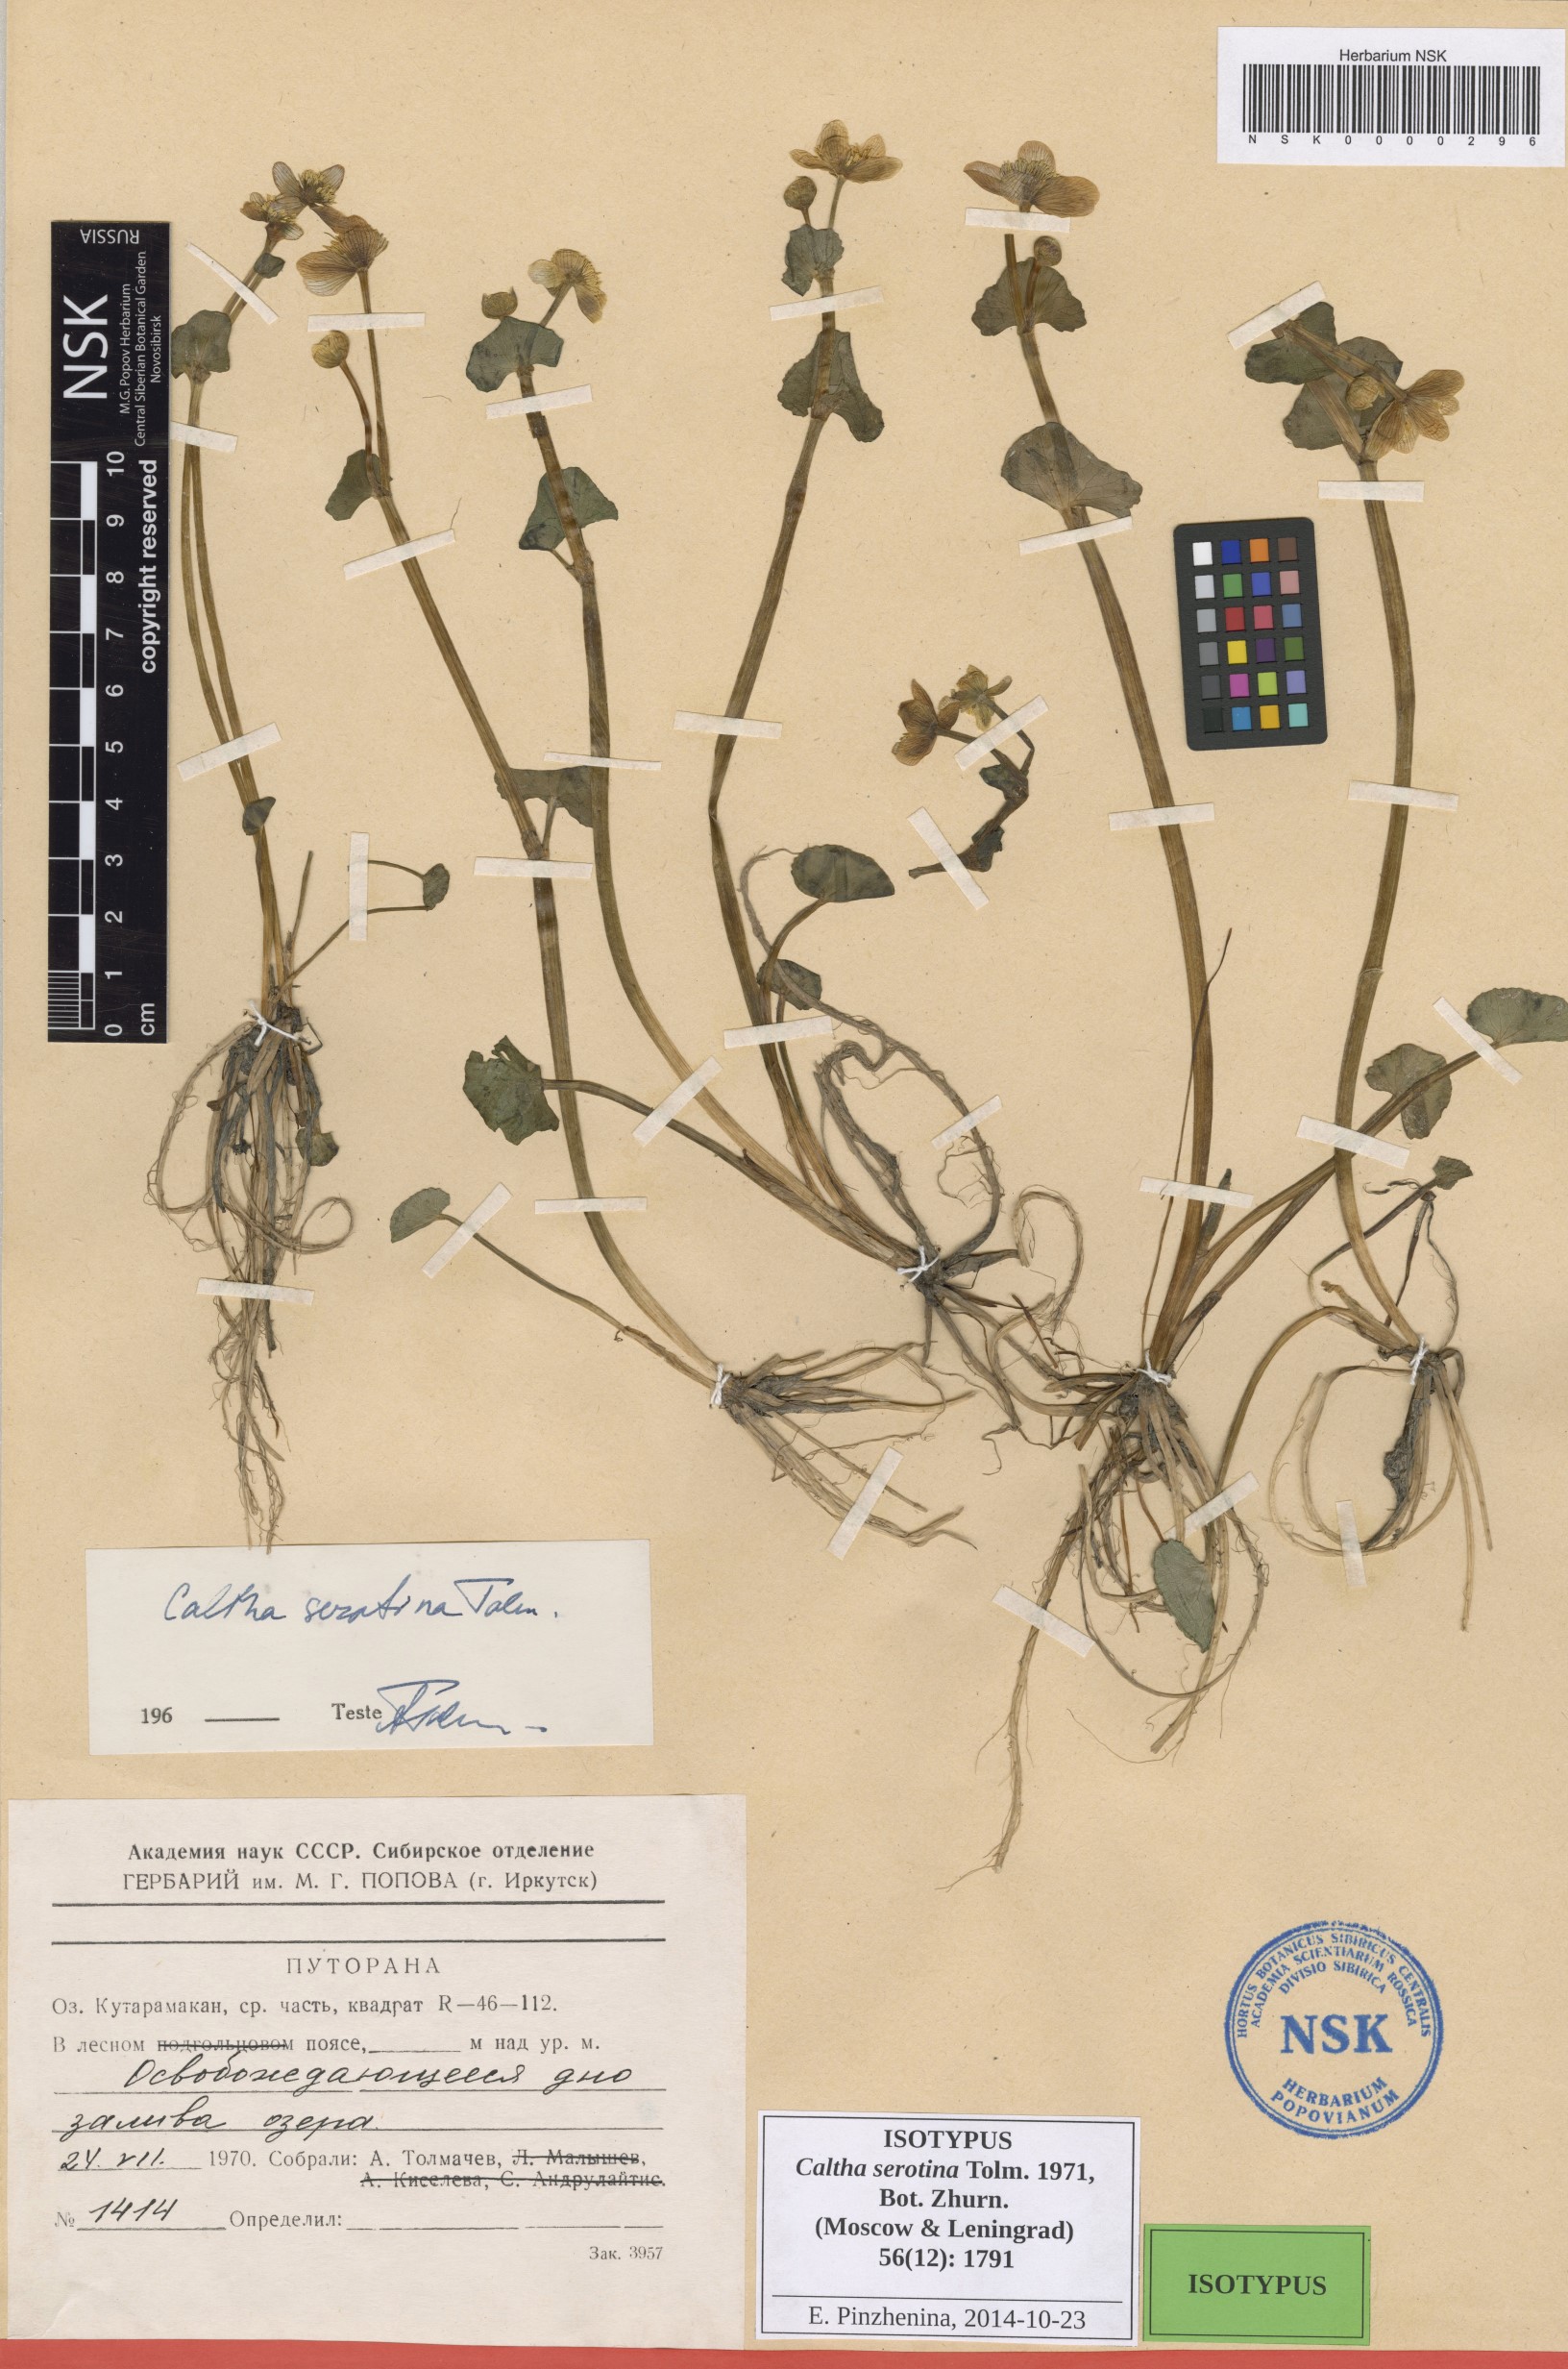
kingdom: Plantae
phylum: Tracheophyta
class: Magnoliopsida
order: Ranunculales
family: Ranunculaceae
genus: Caltha
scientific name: Caltha palustris
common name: Marsh marigold
